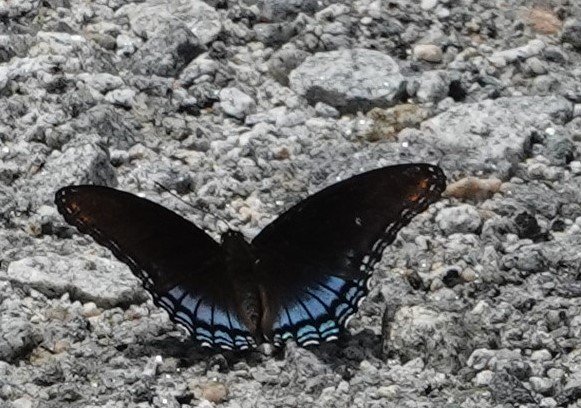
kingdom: Animalia
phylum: Arthropoda
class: Insecta
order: Lepidoptera
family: Nymphalidae
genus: Limenitis
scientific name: Limenitis astyanax
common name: Red-spotted Purple
